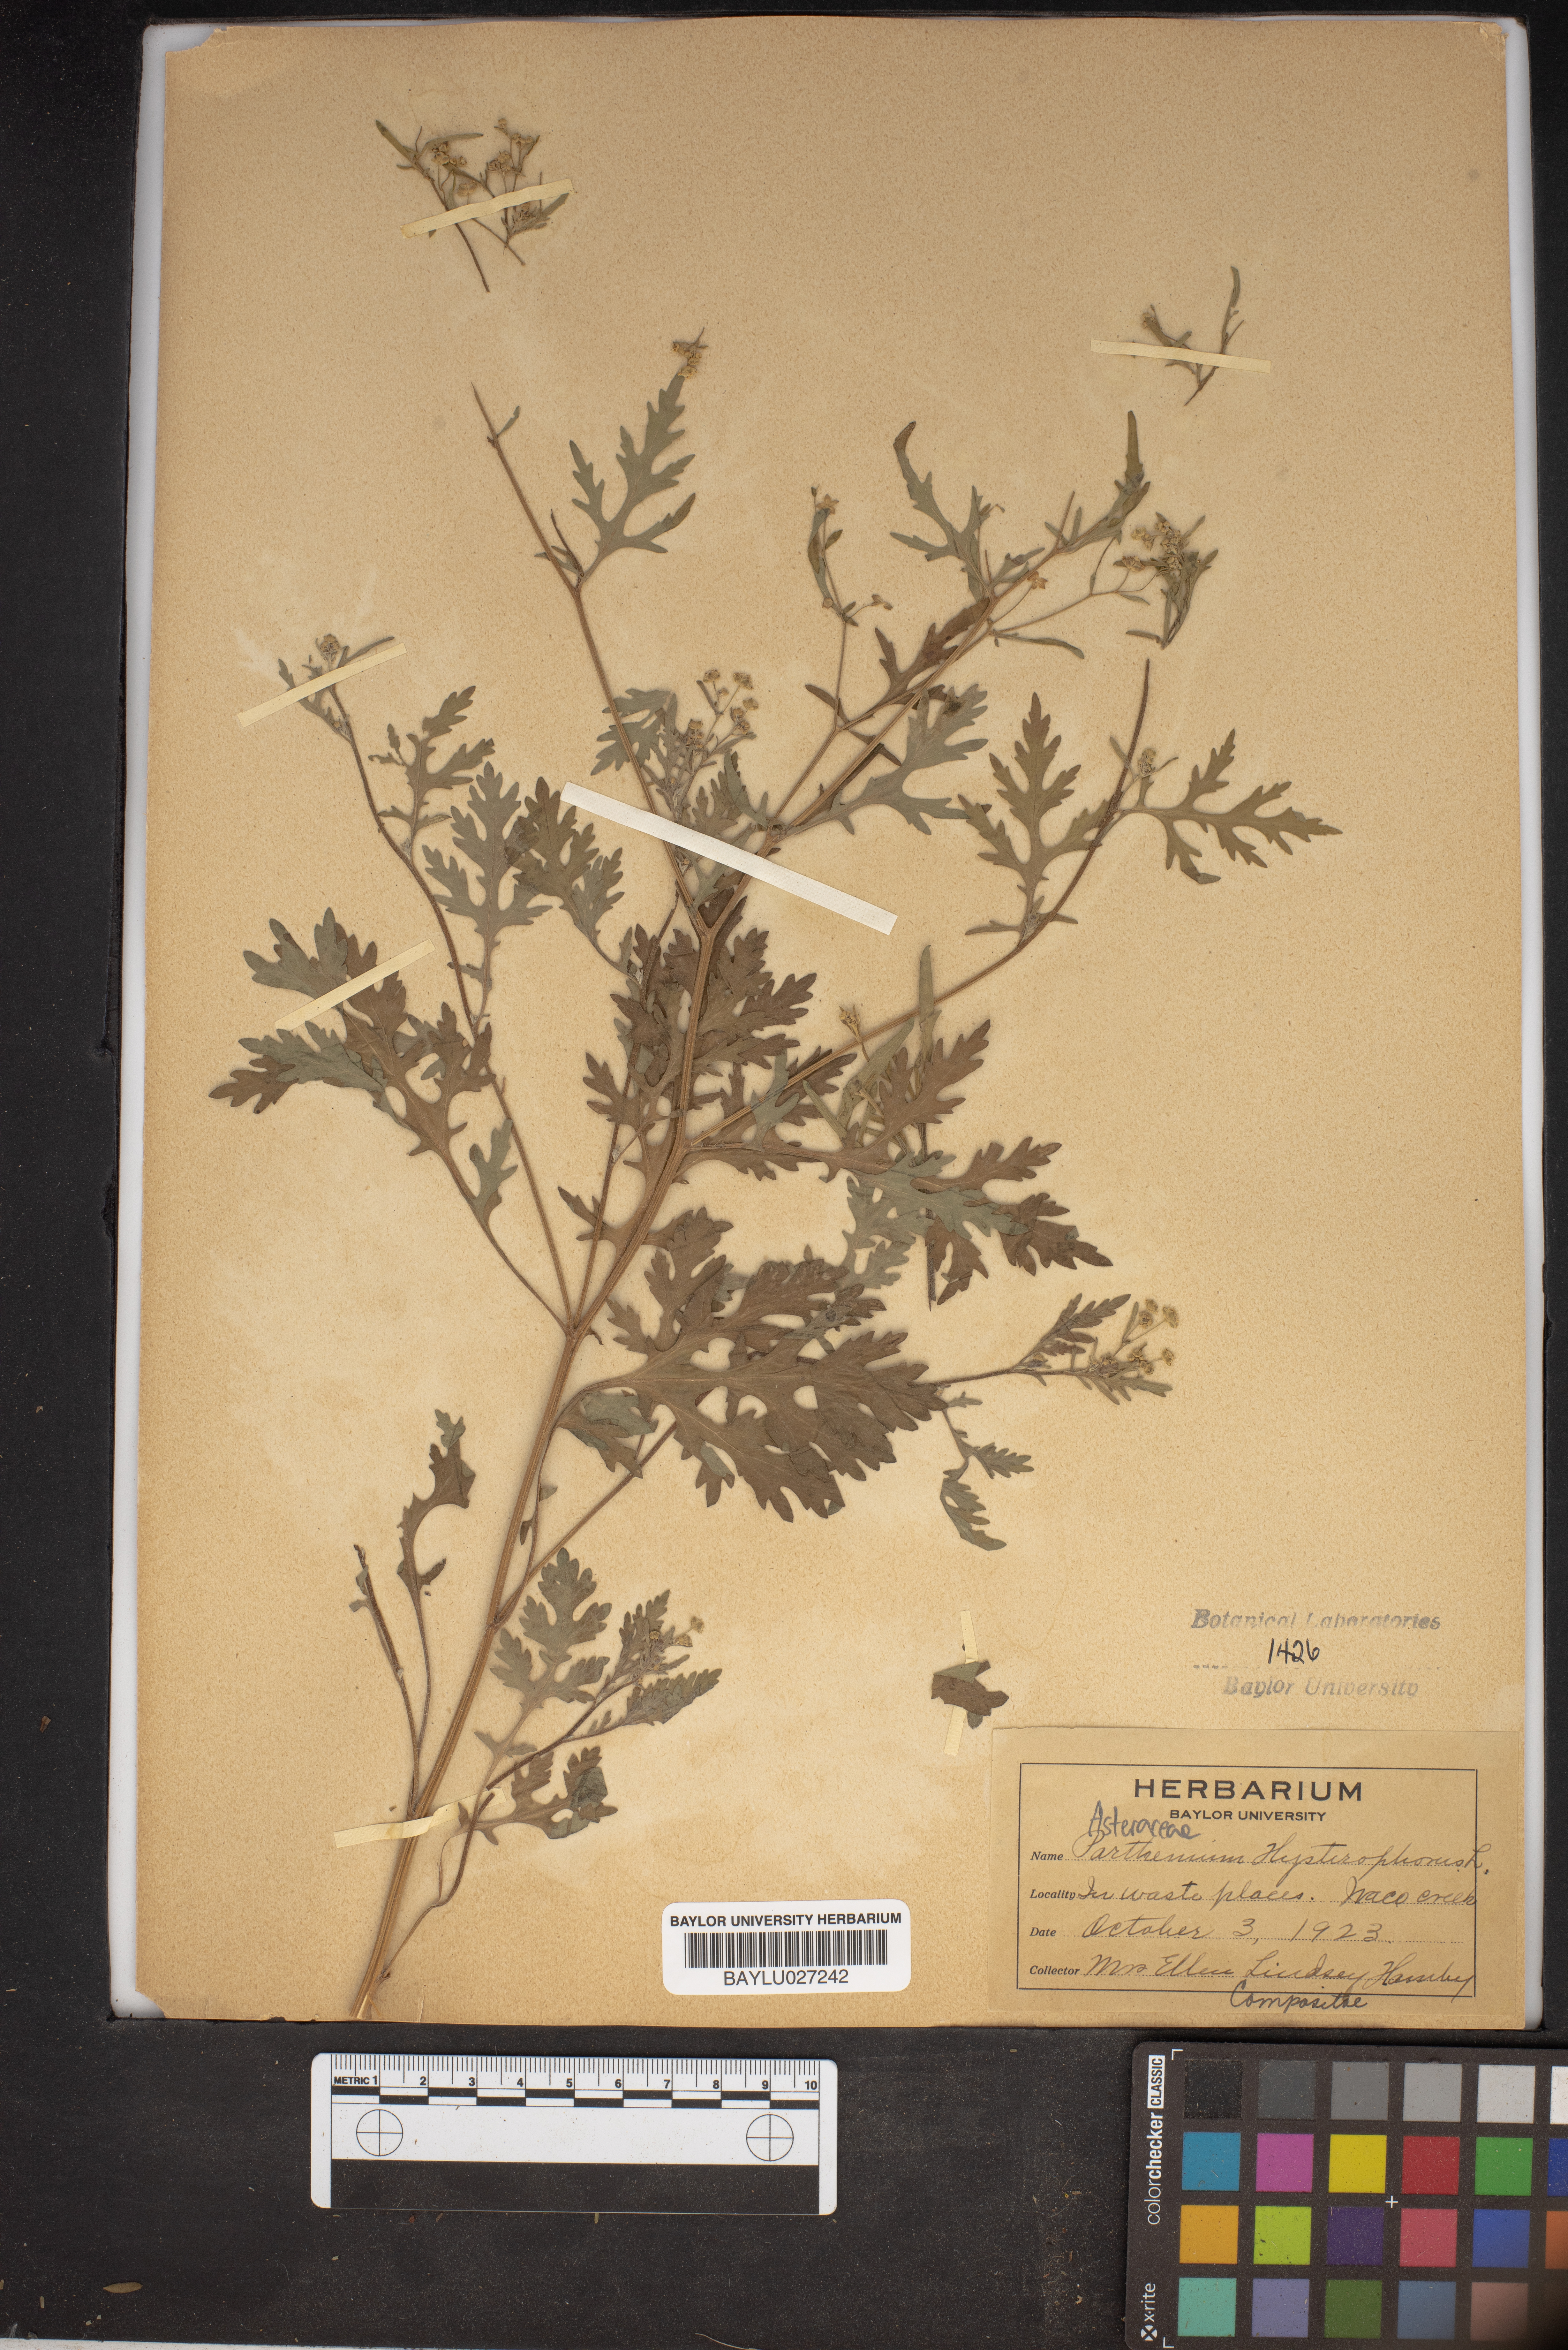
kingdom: Plantae
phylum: Tracheophyta
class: Magnoliopsida
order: Asterales
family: Asteraceae
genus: Parthenium
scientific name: Parthenium hysterophorus
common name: Santa maria feverfew
